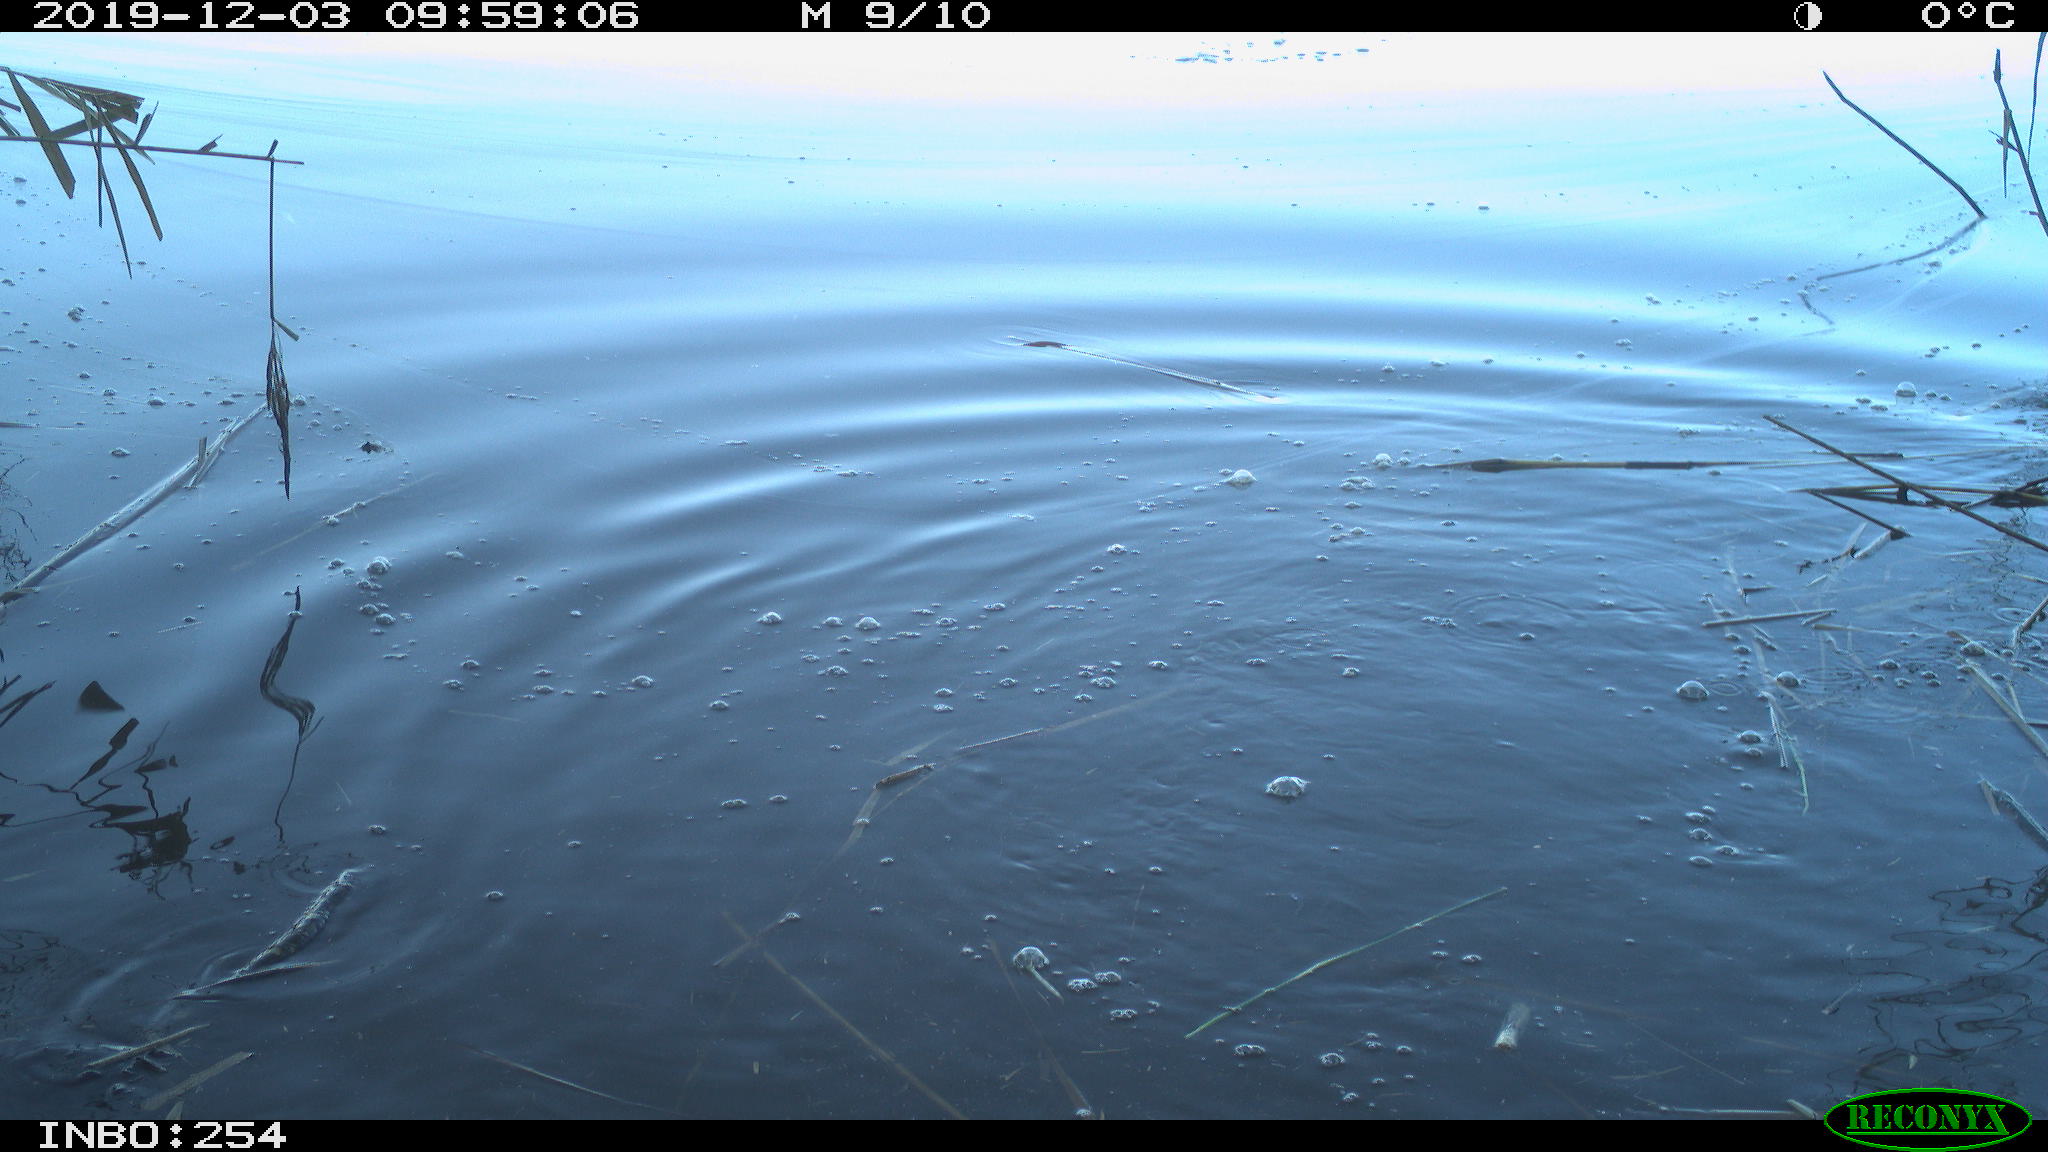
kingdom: Animalia
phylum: Chordata
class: Aves
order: Suliformes
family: Phalacrocoracidae
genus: Phalacrocorax
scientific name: Phalacrocorax carbo
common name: Great cormorant
